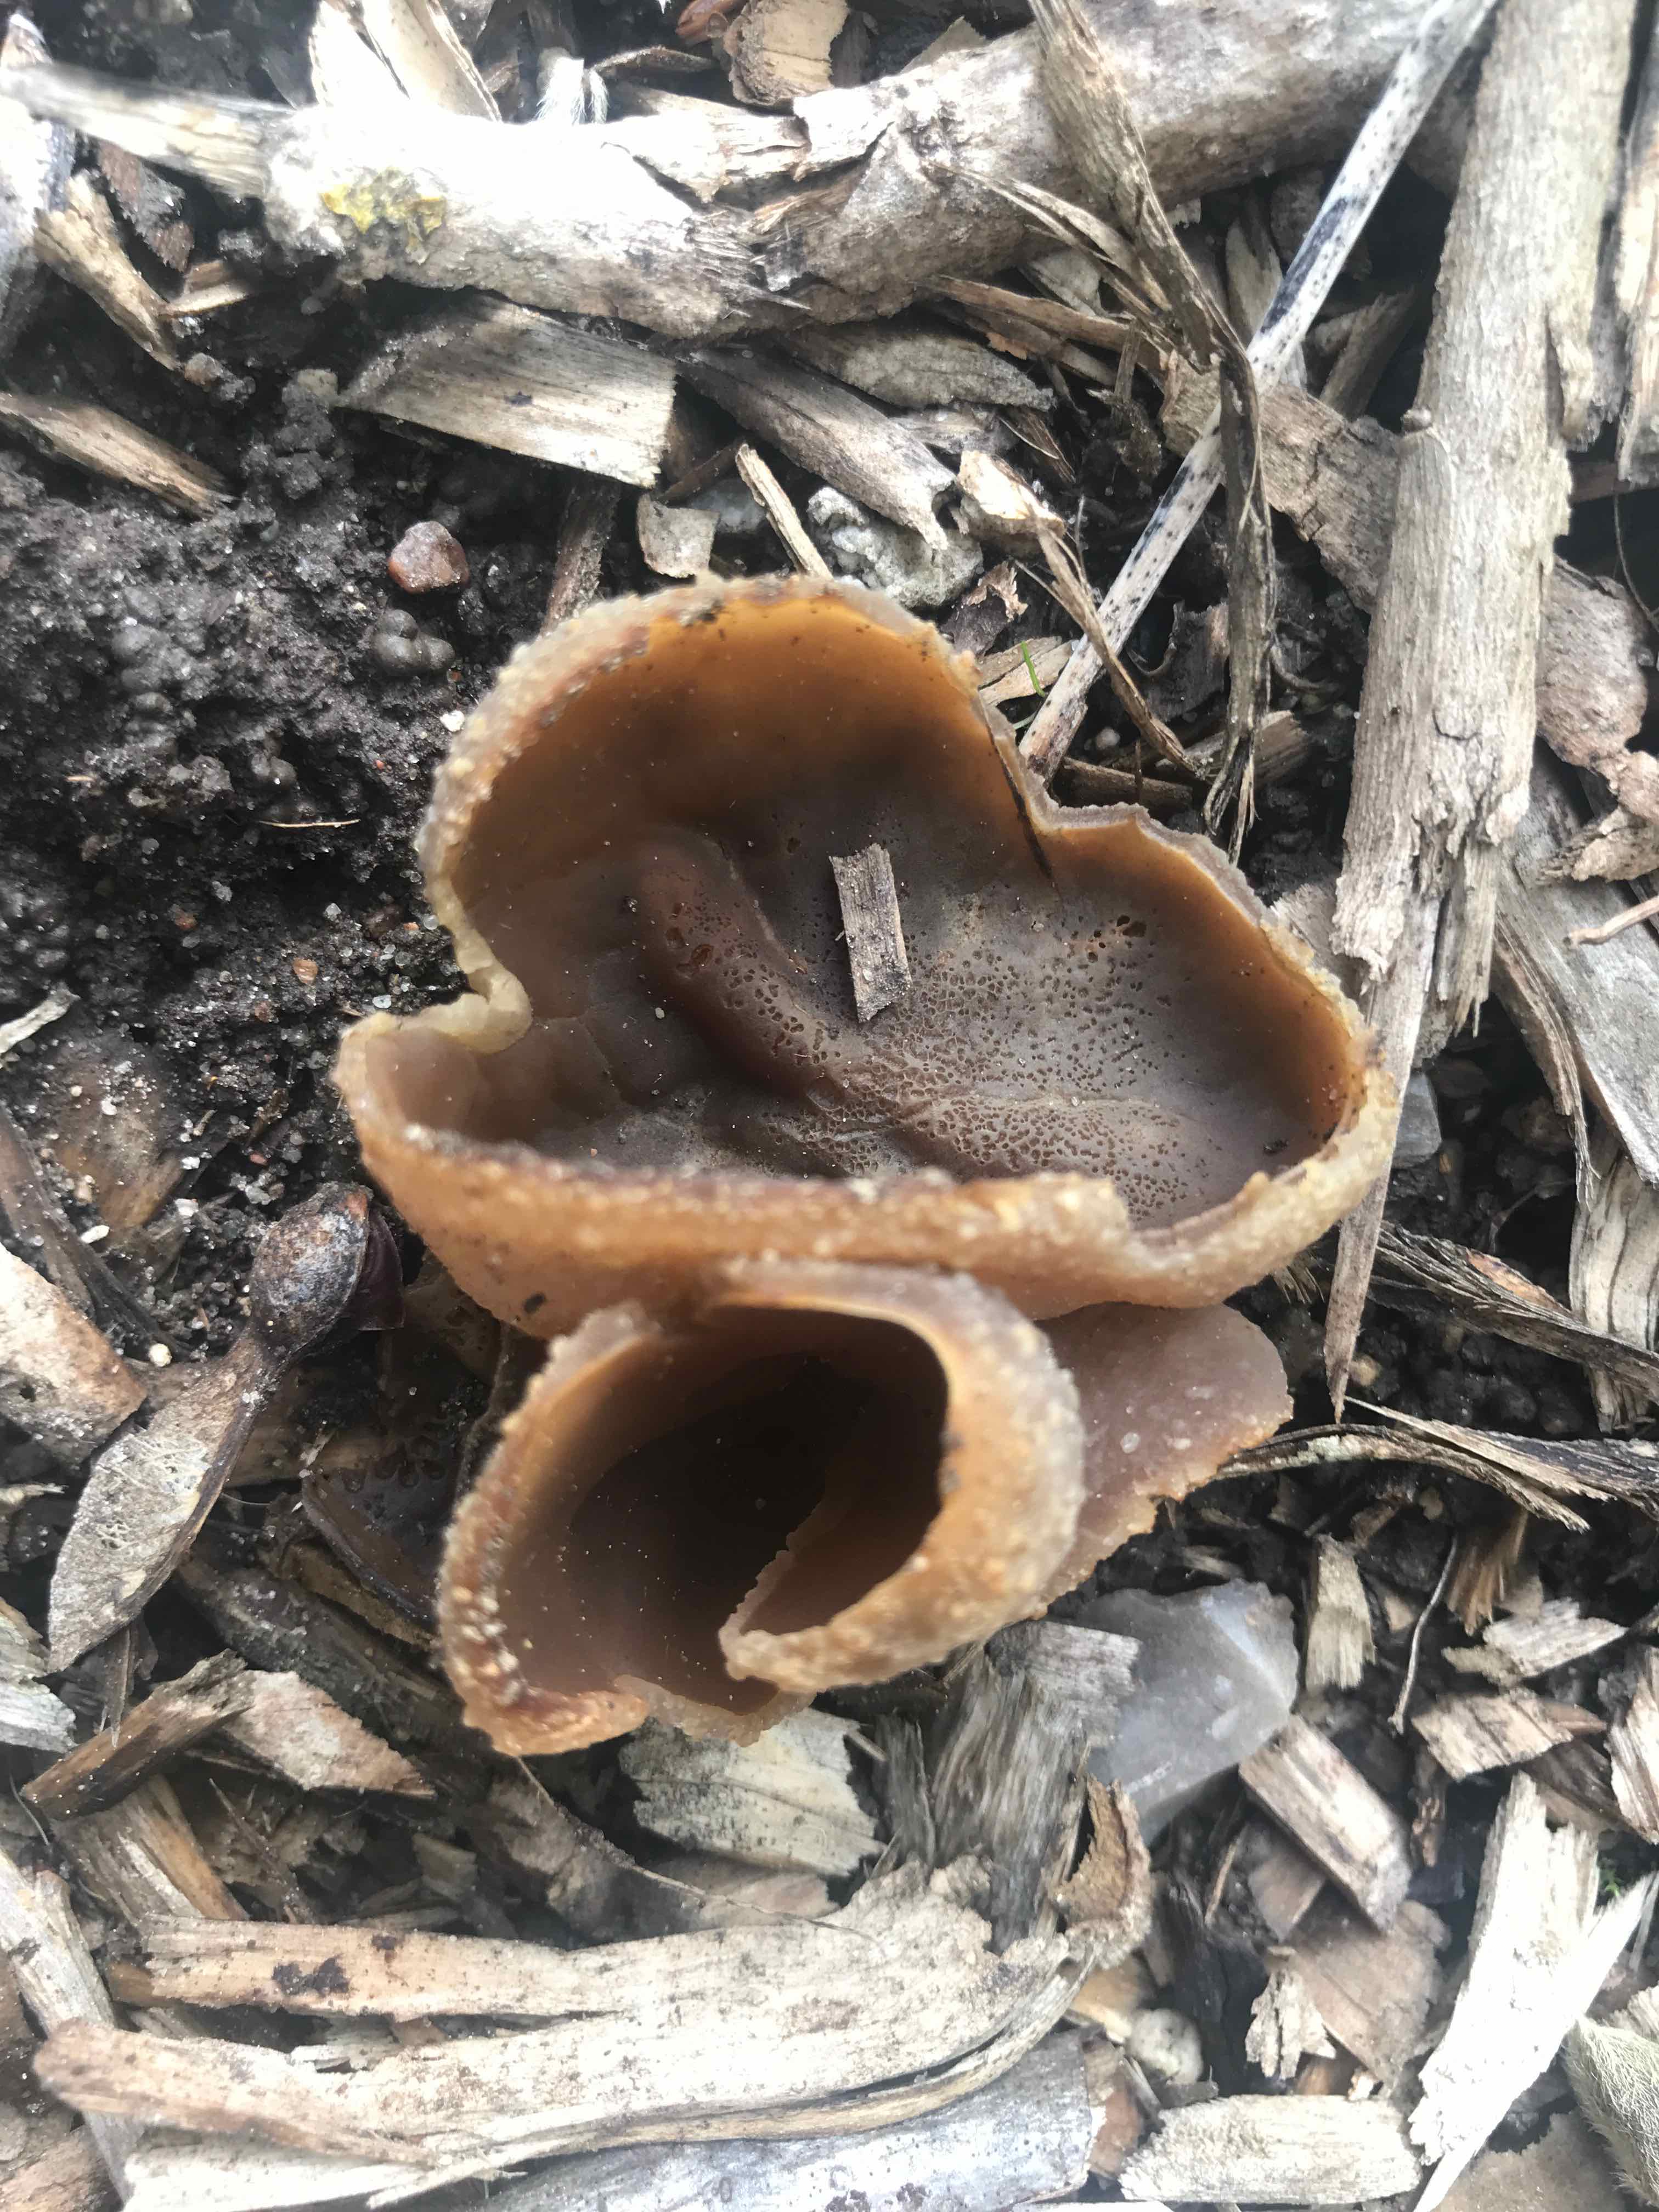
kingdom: Fungi
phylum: Ascomycota
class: Pezizomycetes
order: Pezizales
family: Pezizaceae
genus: Peziza
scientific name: Peziza
